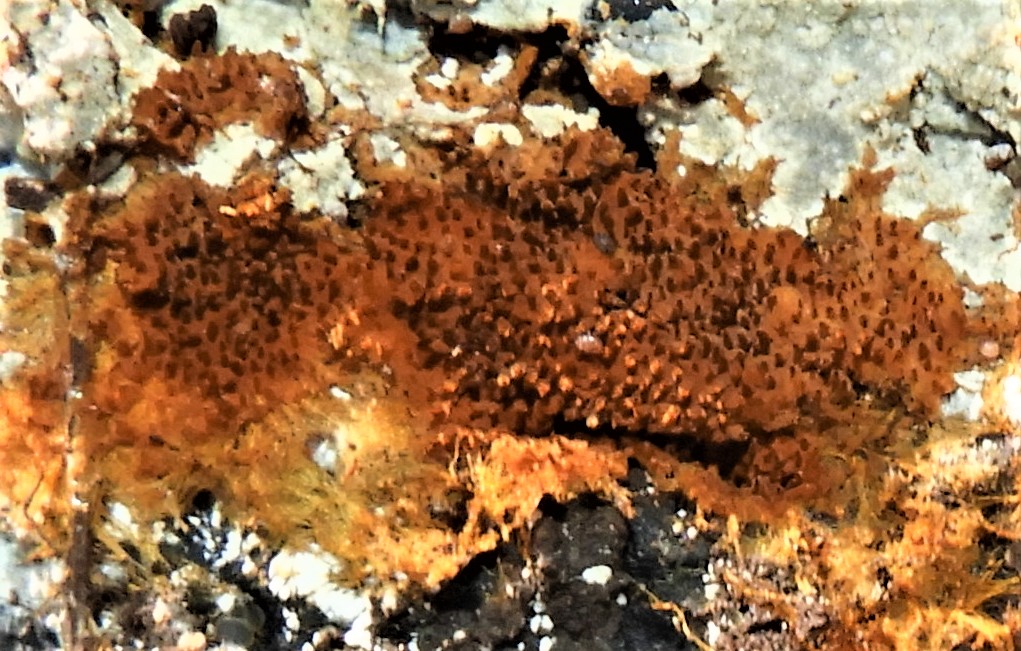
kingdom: Fungi
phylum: Basidiomycota
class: Agaricomycetes
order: Thelephorales
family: Thelephoraceae
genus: Odontia
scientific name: Odontia ferruginea
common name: pigget frynsehinde
